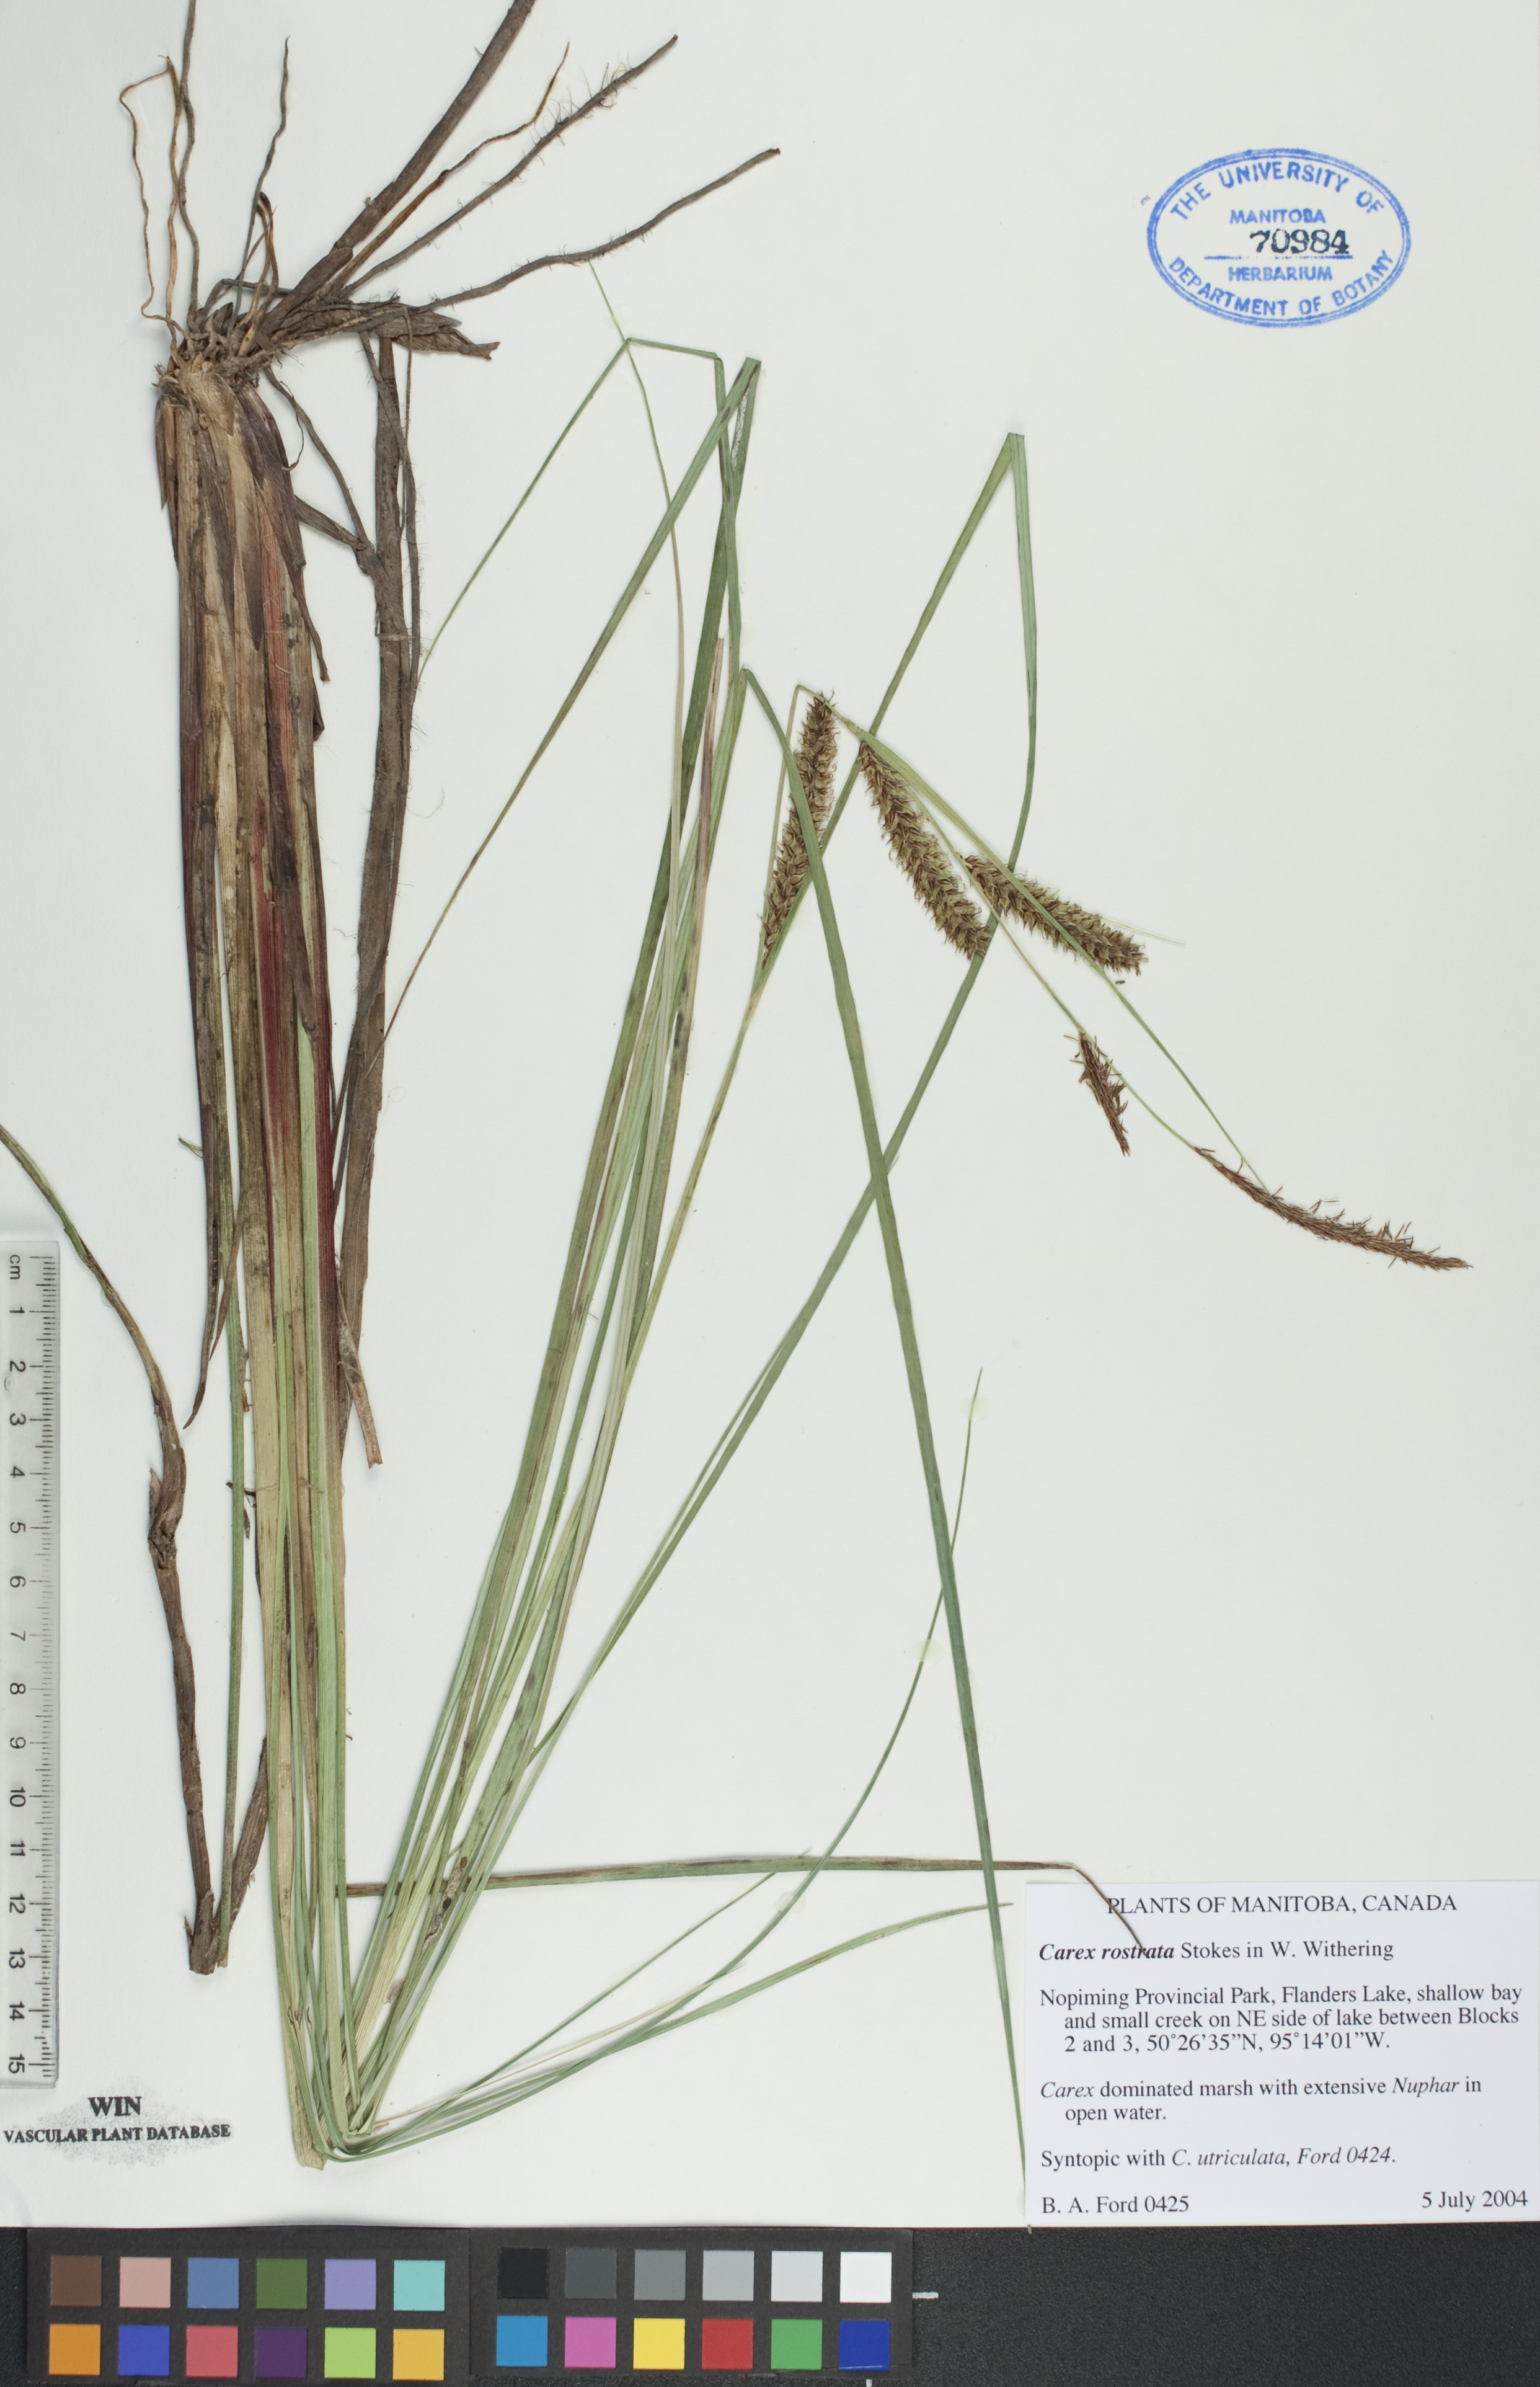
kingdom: Plantae
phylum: Tracheophyta
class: Liliopsida
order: Poales
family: Cyperaceae
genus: Carex
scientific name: Carex rostrata
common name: Bottle sedge
